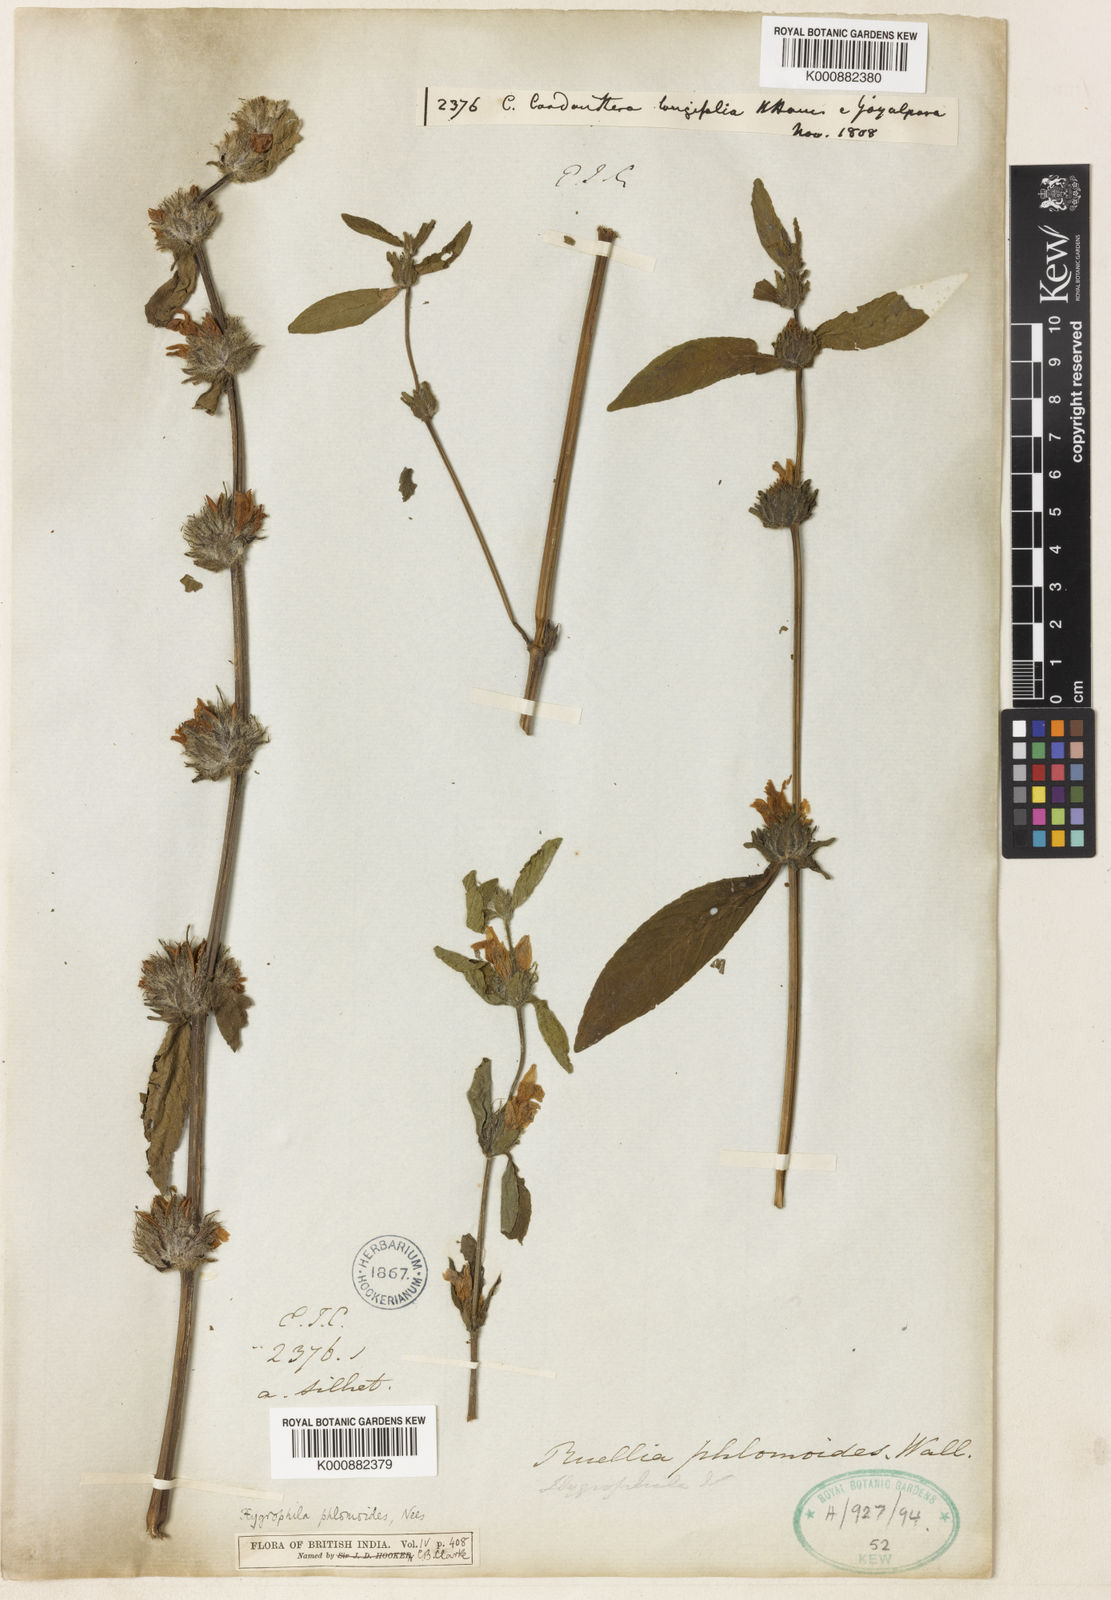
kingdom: Plantae
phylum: Tracheophyta
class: Magnoliopsida
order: Lamiales
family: Acanthaceae
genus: Hygrophila
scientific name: Hygrophila ringens
